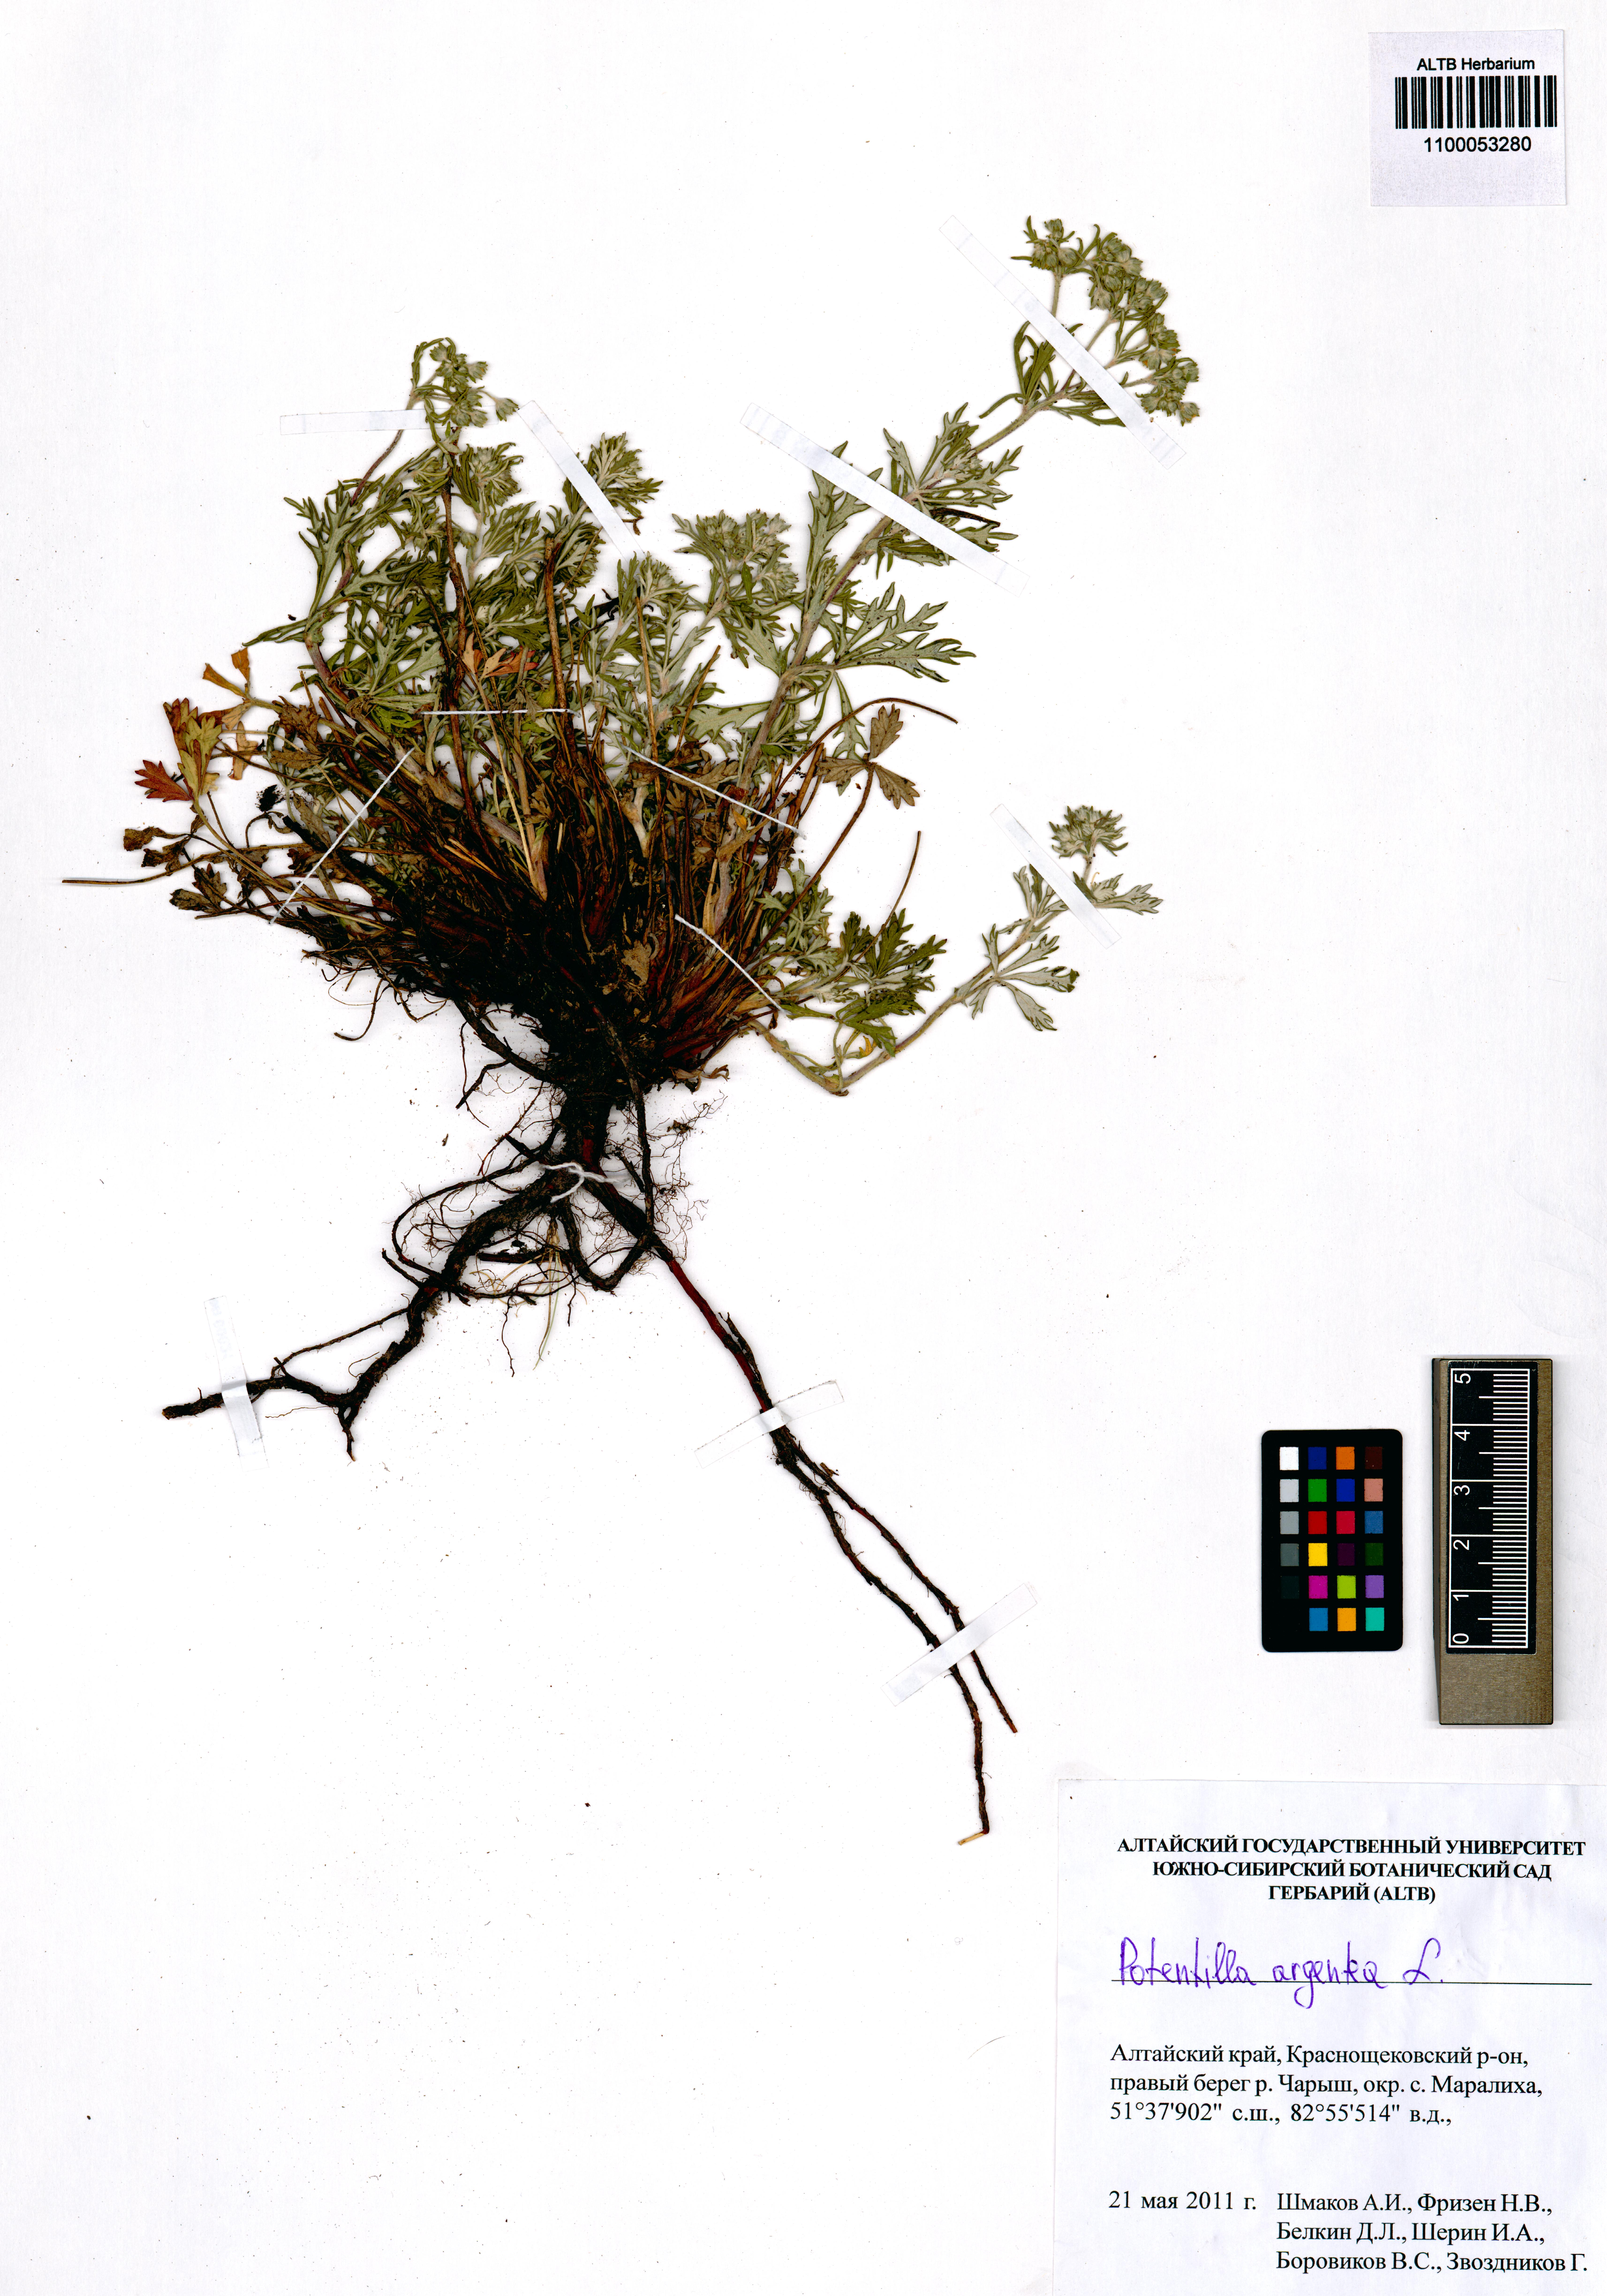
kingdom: Plantae
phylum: Tracheophyta
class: Magnoliopsida
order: Rosales
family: Rosaceae
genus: Potentilla
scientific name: Potentilla argentea
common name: Hoary cinquefoil
